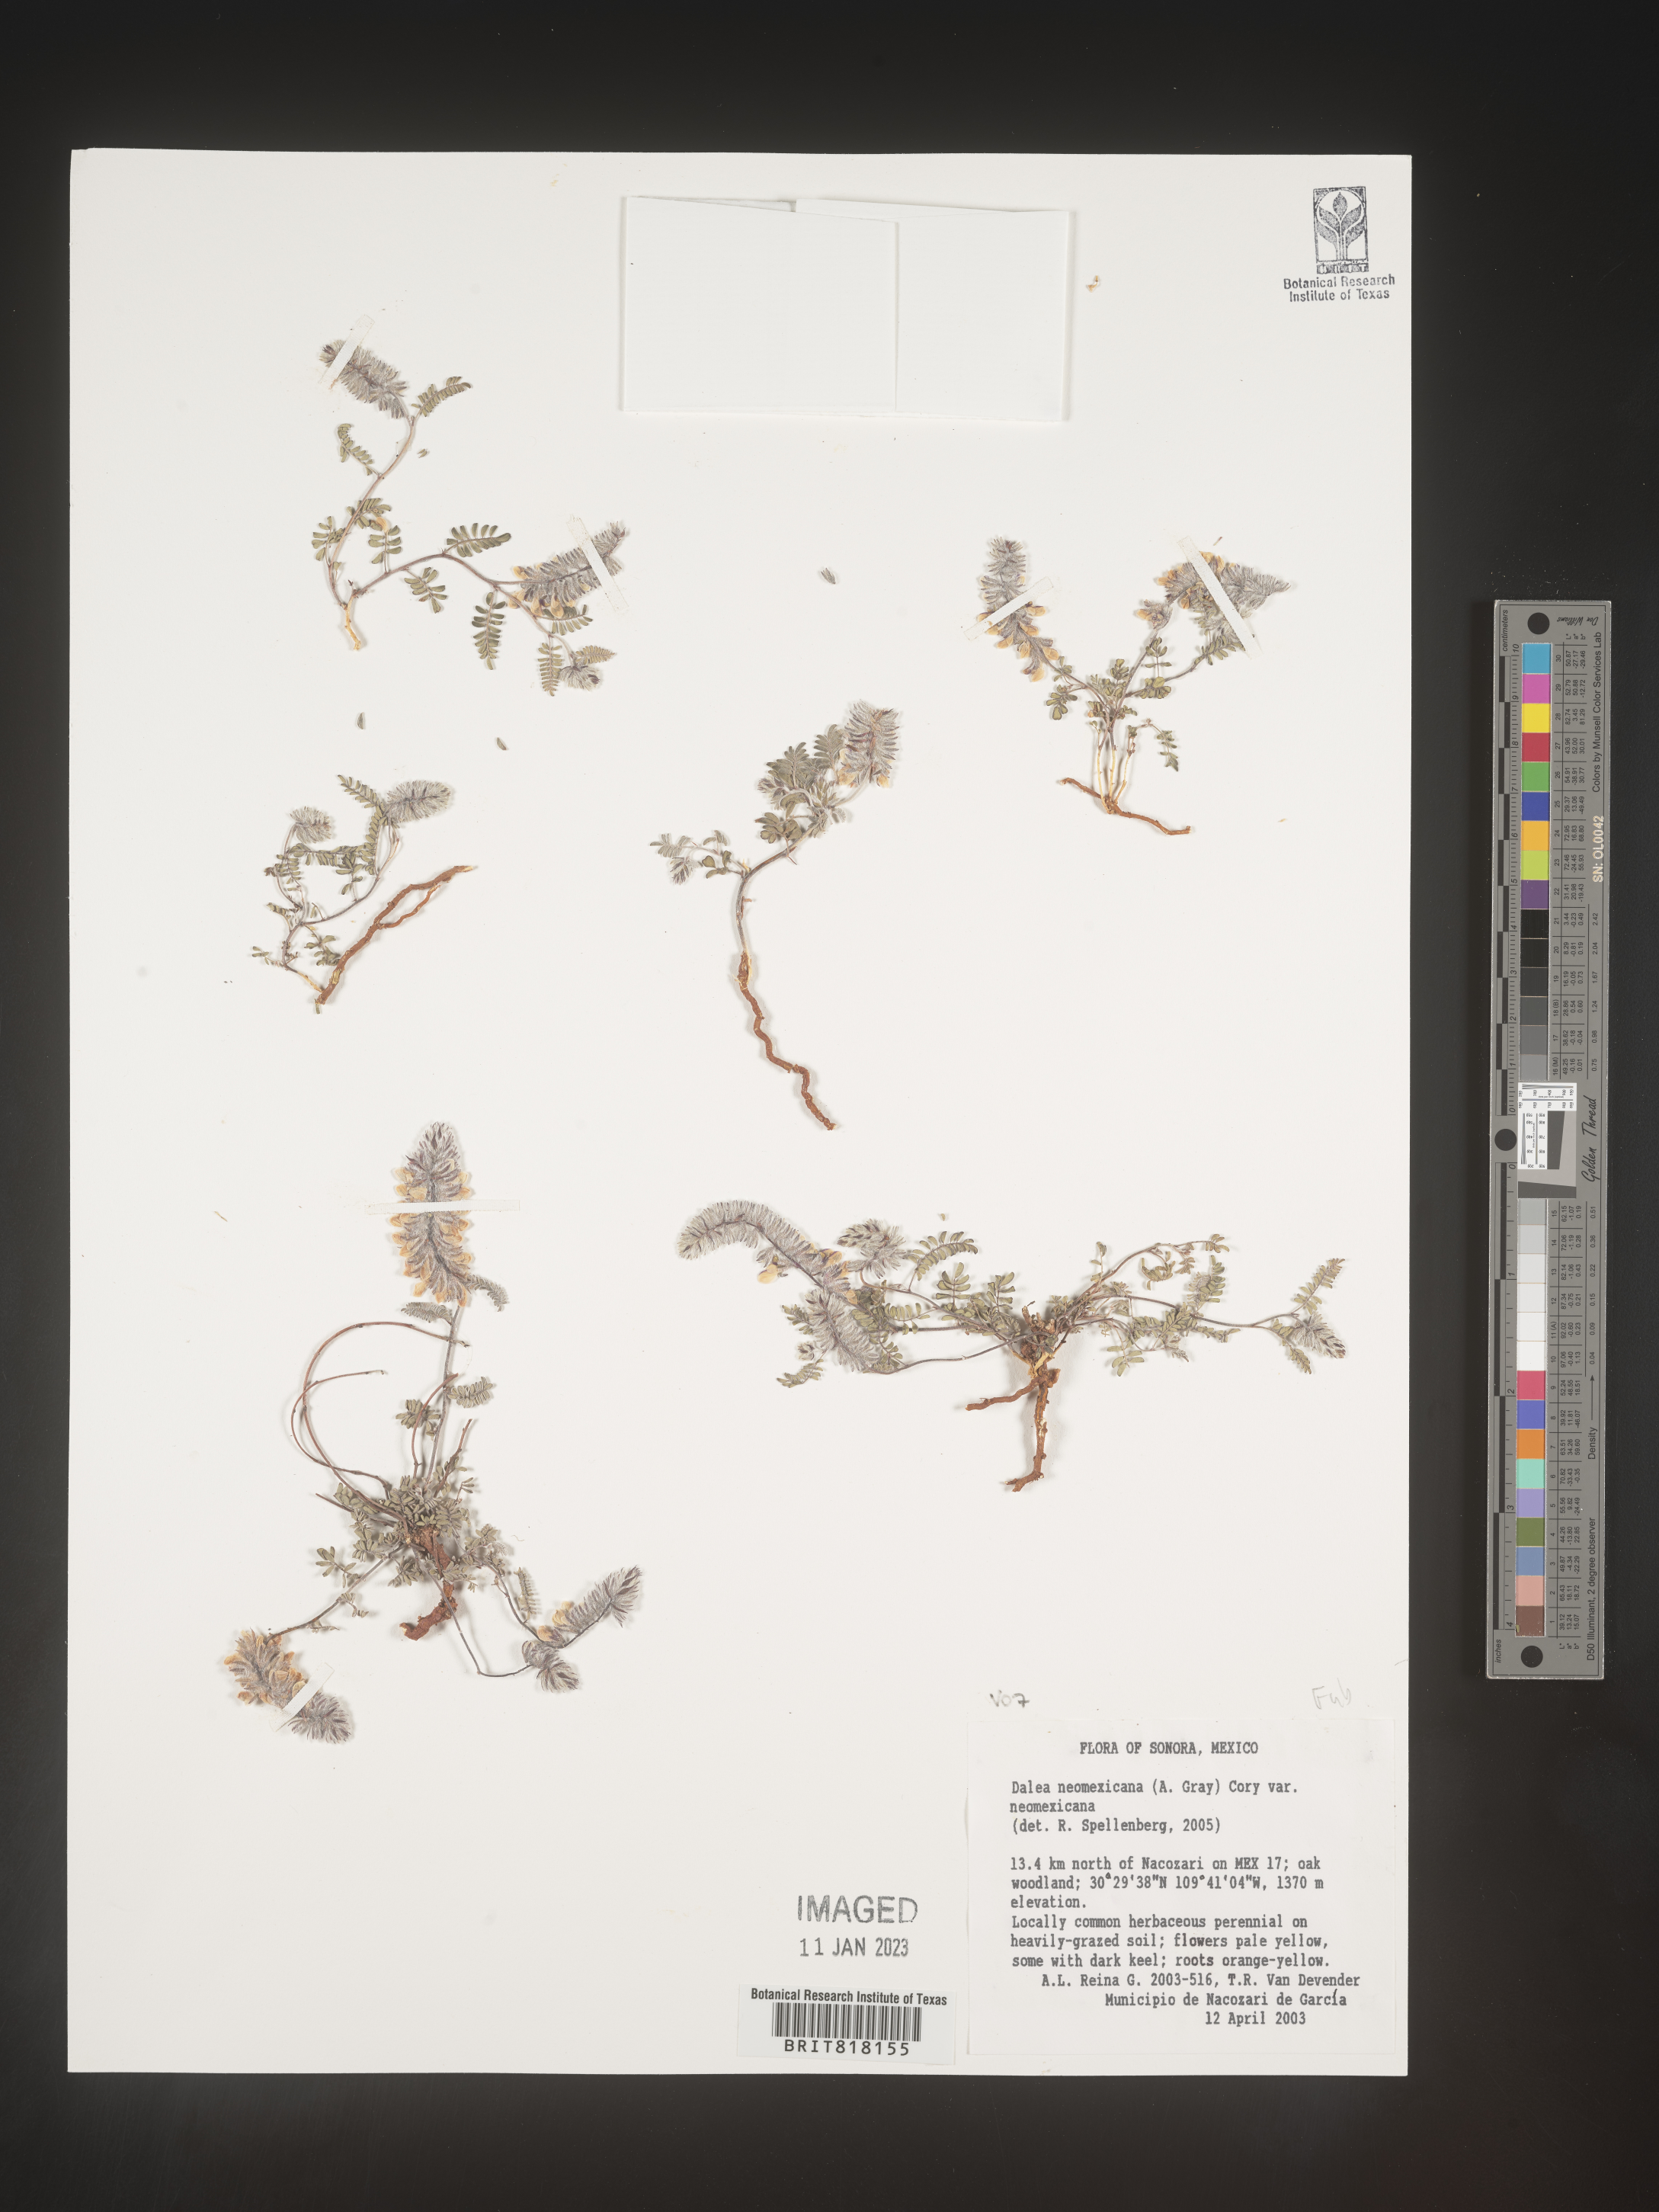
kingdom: Plantae
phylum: Tracheophyta
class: Magnoliopsida
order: Fabales
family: Fabaceae
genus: Dalea
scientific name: Dalea
